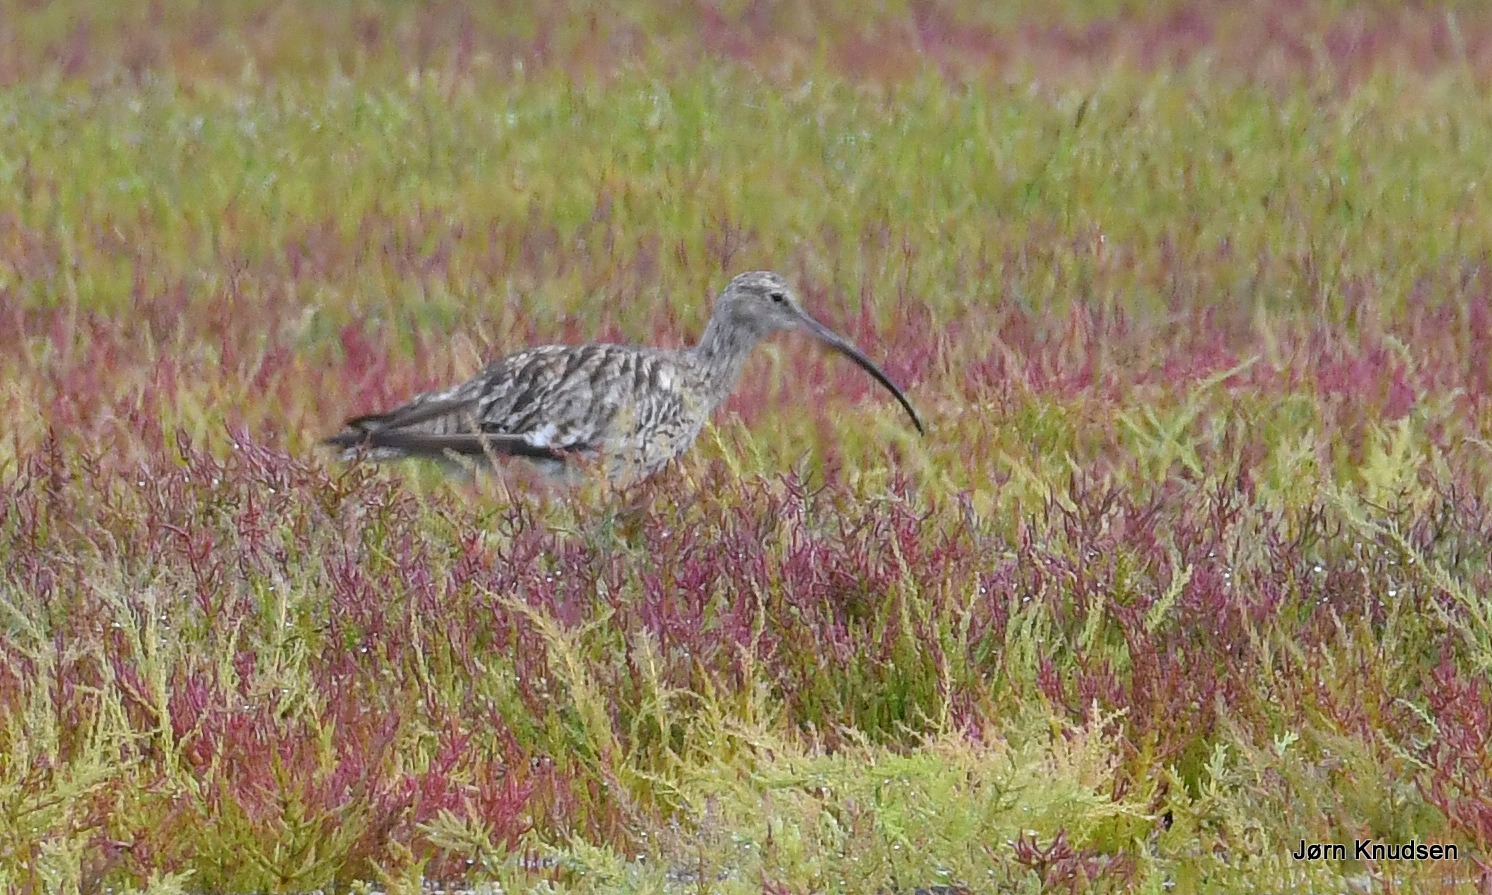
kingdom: Animalia
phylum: Chordata
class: Aves
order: Charadriiformes
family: Scolopacidae
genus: Numenius
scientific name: Numenius arquata
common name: Storspove
